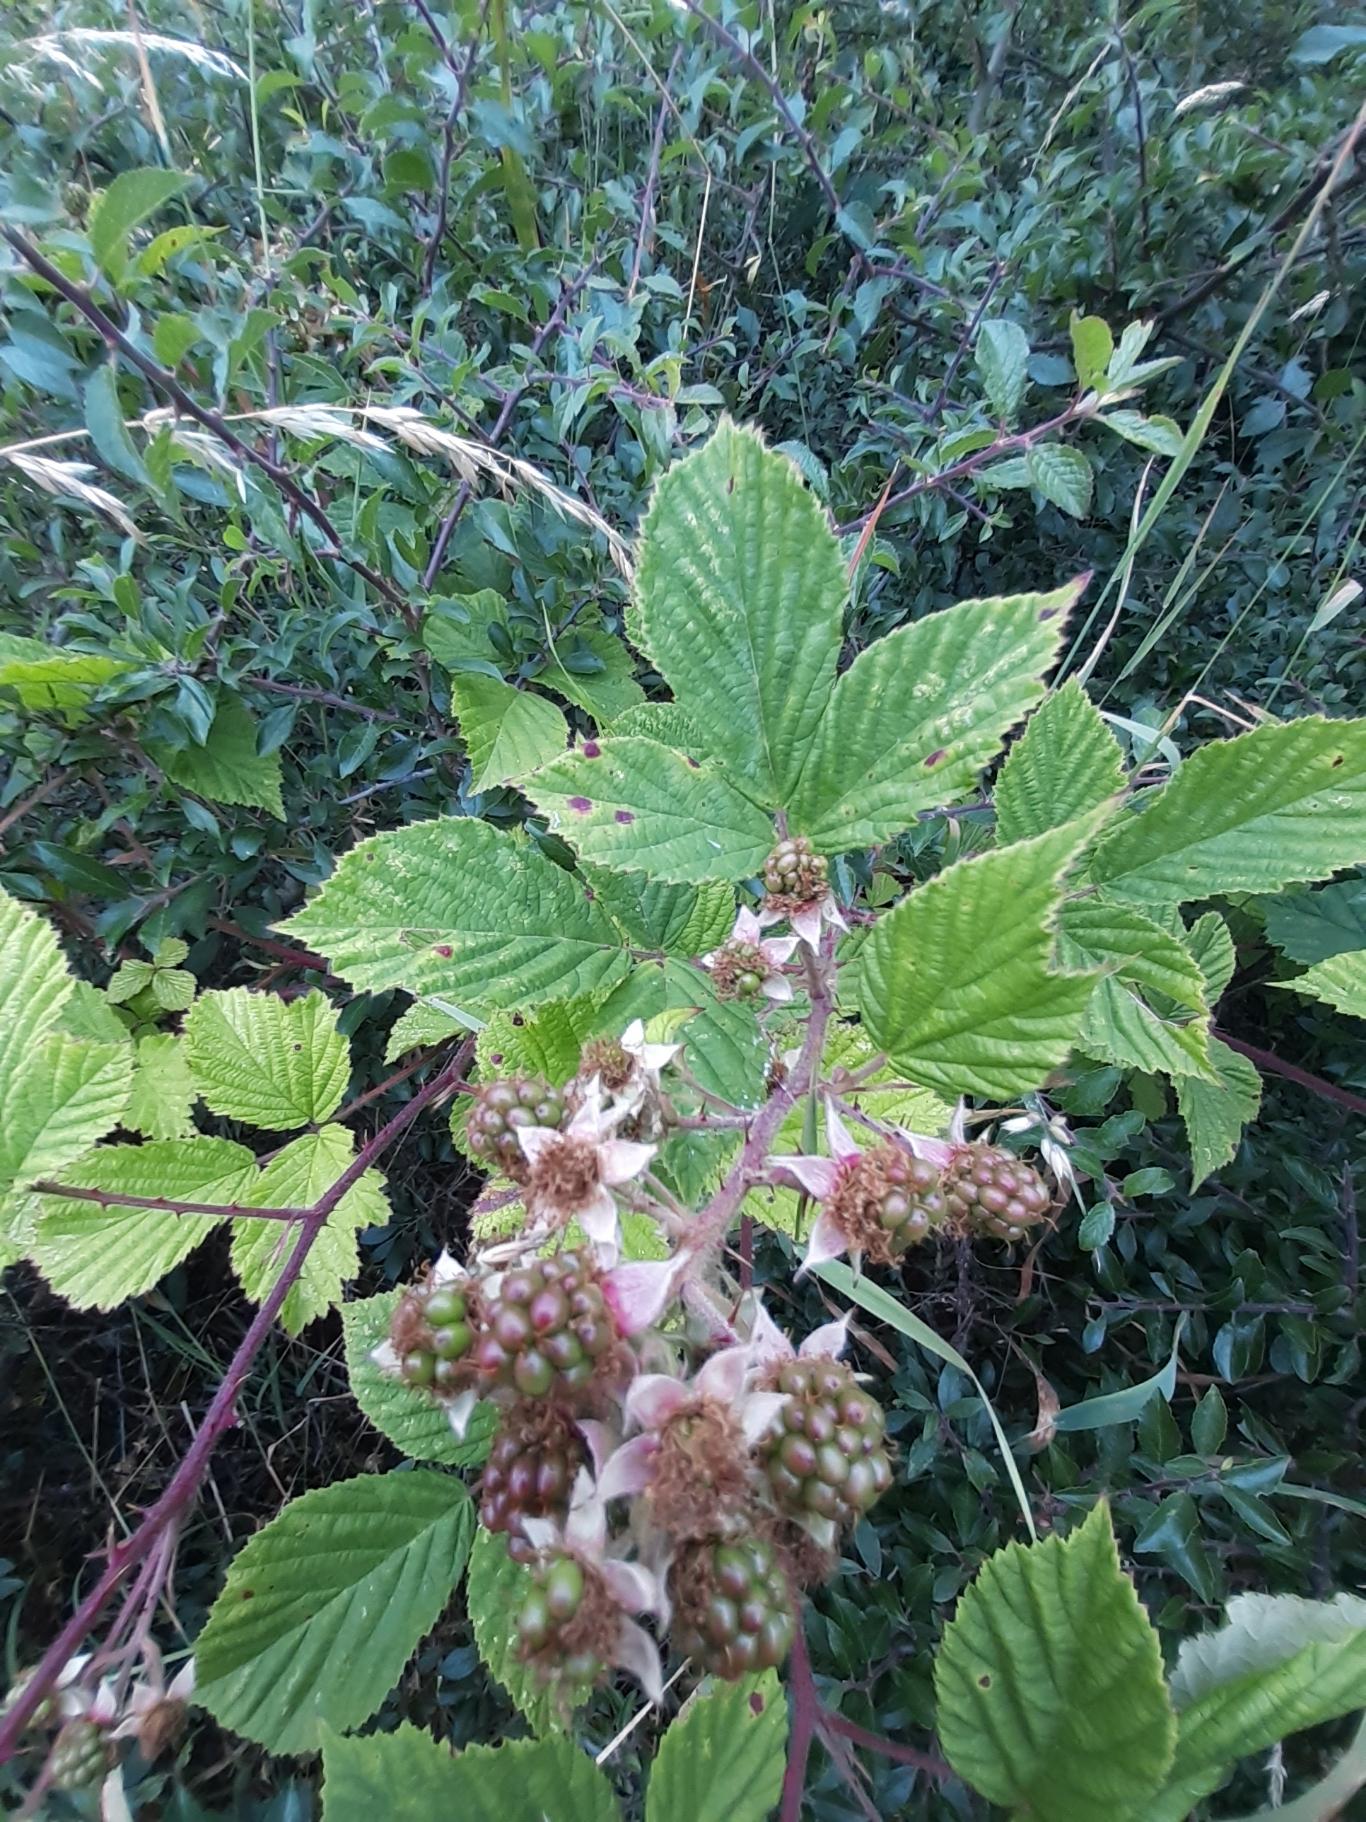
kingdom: Plantae
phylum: Tracheophyta
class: Magnoliopsida
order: Rosales
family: Rosaceae
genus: Rubus
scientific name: Rubus
